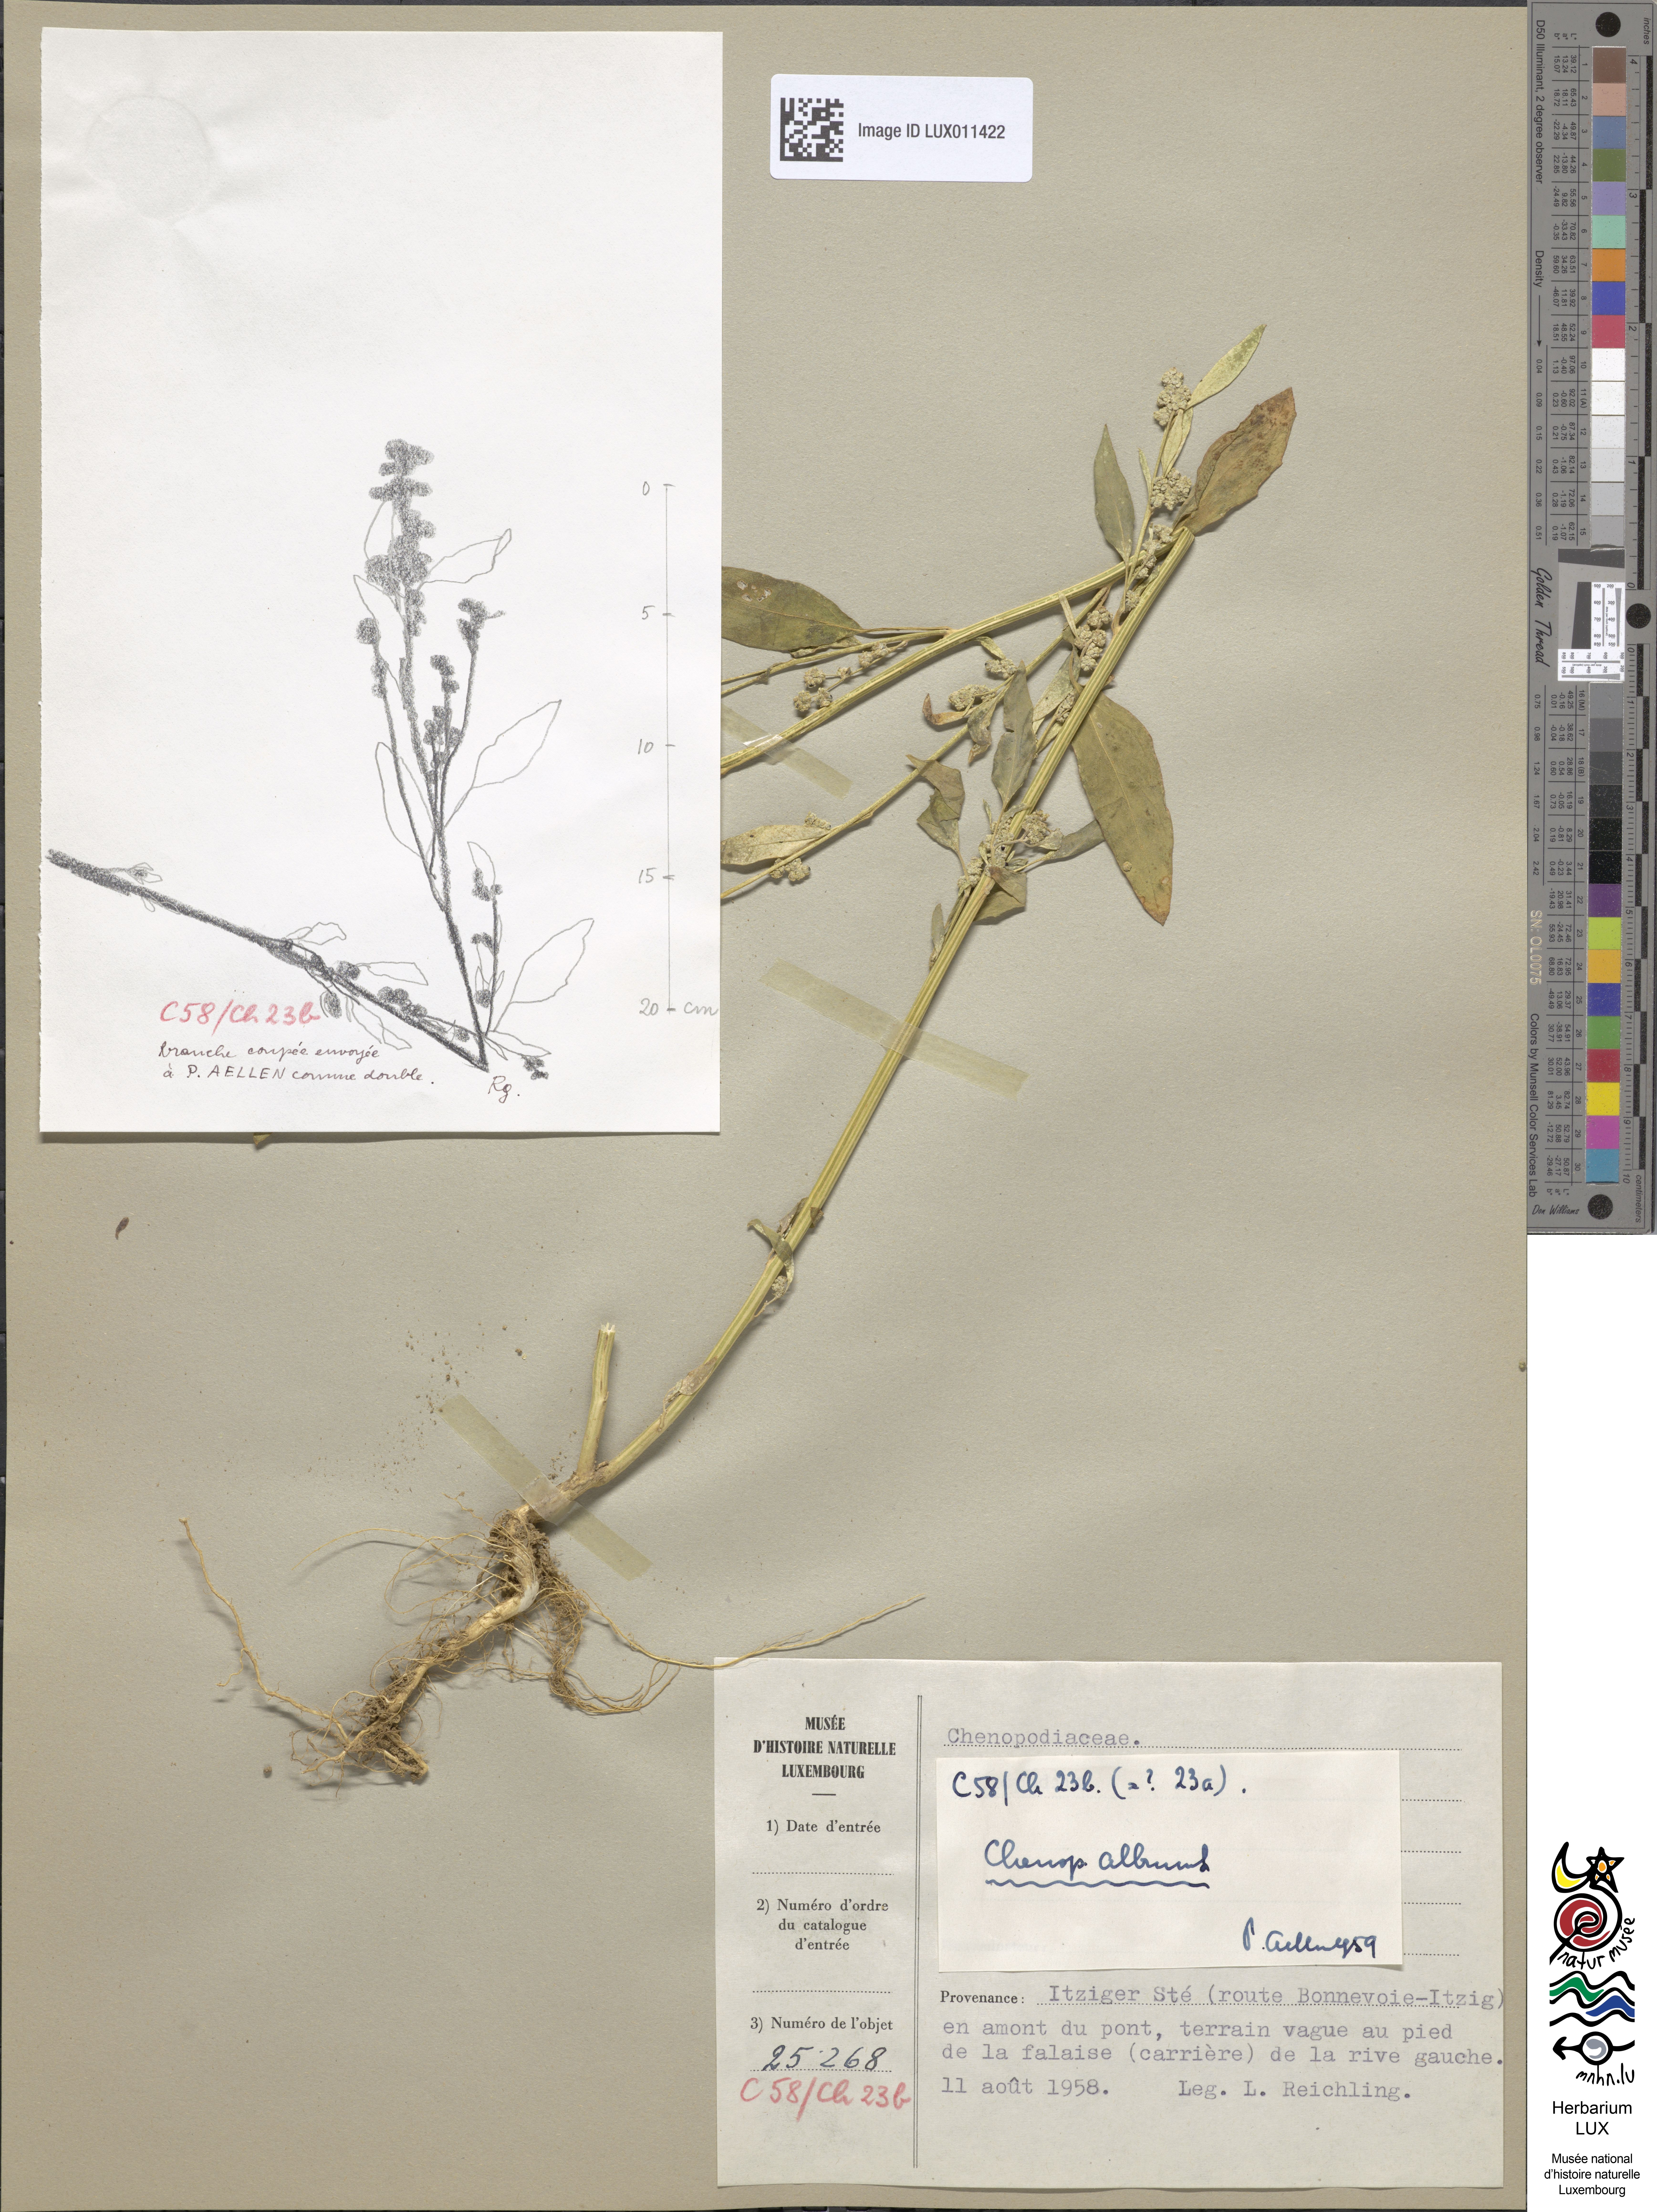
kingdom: Plantae
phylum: Tracheophyta
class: Magnoliopsida
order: Caryophyllales
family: Amaranthaceae
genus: Chenopodium
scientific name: Chenopodium album
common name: Fat-hen
